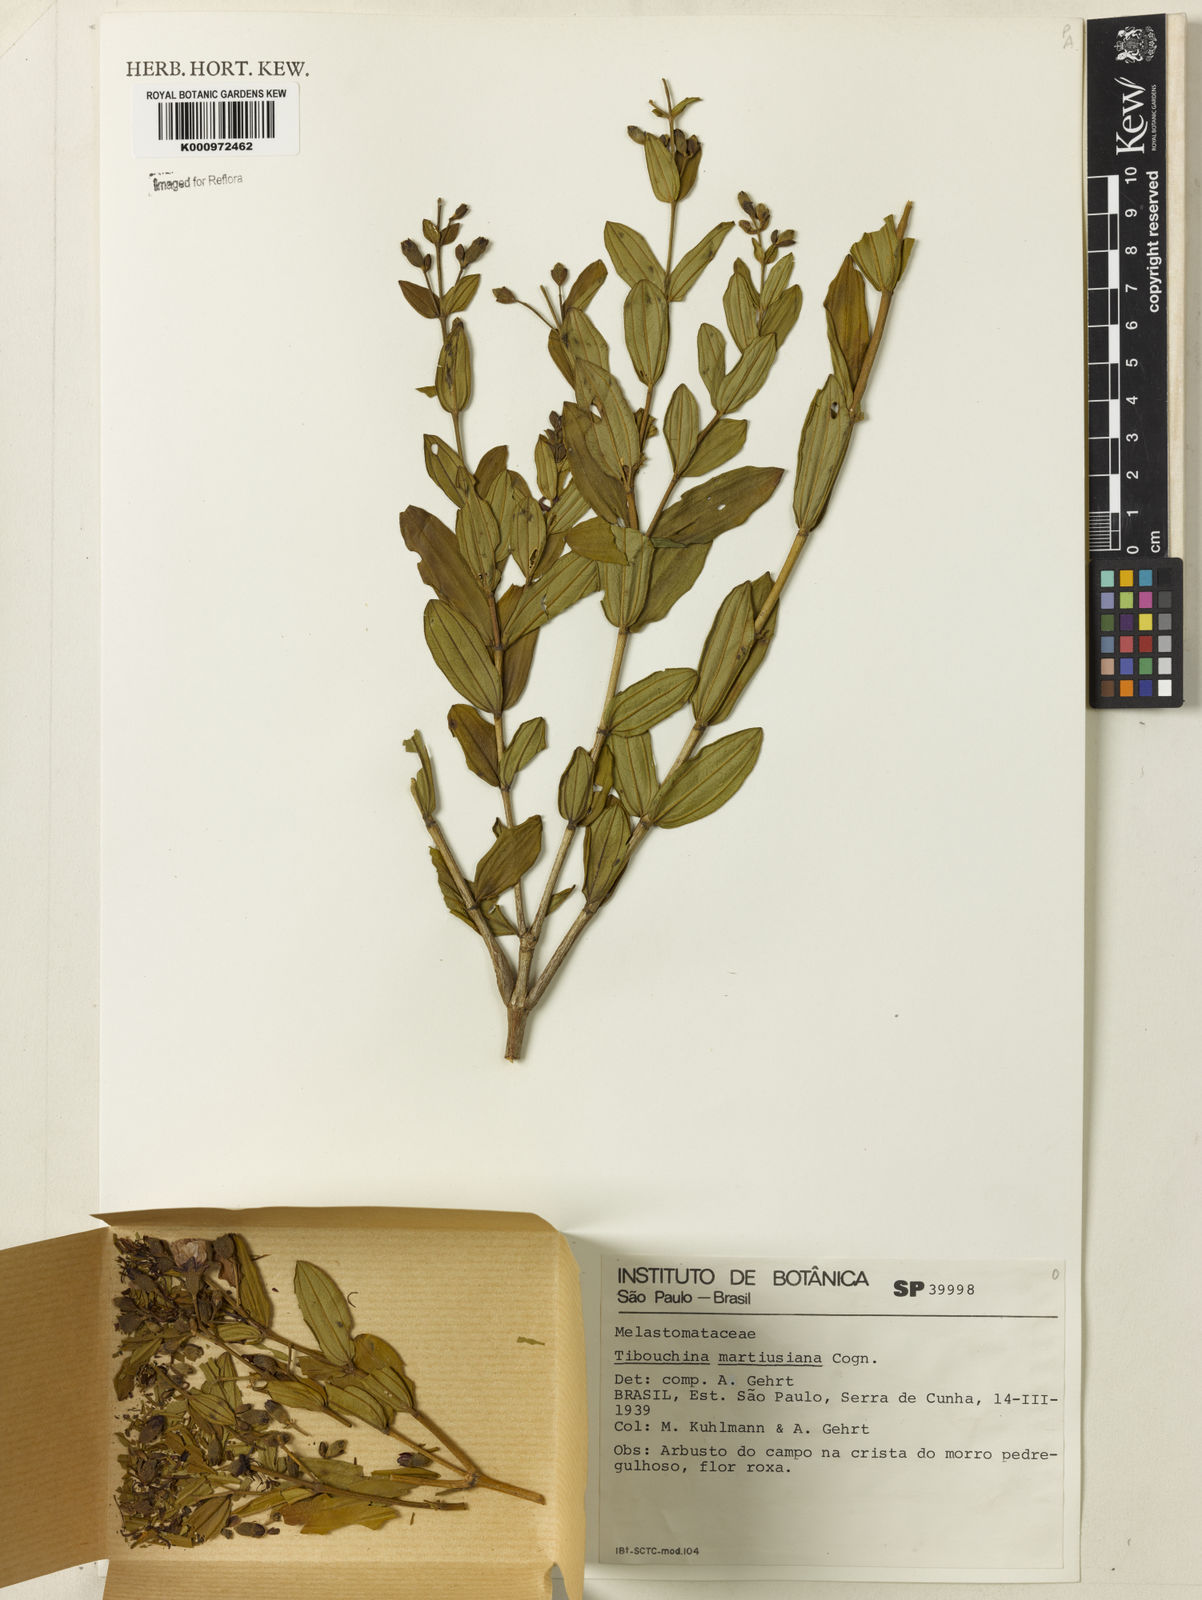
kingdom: Plantae
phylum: Tracheophyta
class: Magnoliopsida
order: Myrtales
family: Melastomataceae
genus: Pleroma
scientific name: Pleroma martiusianum
